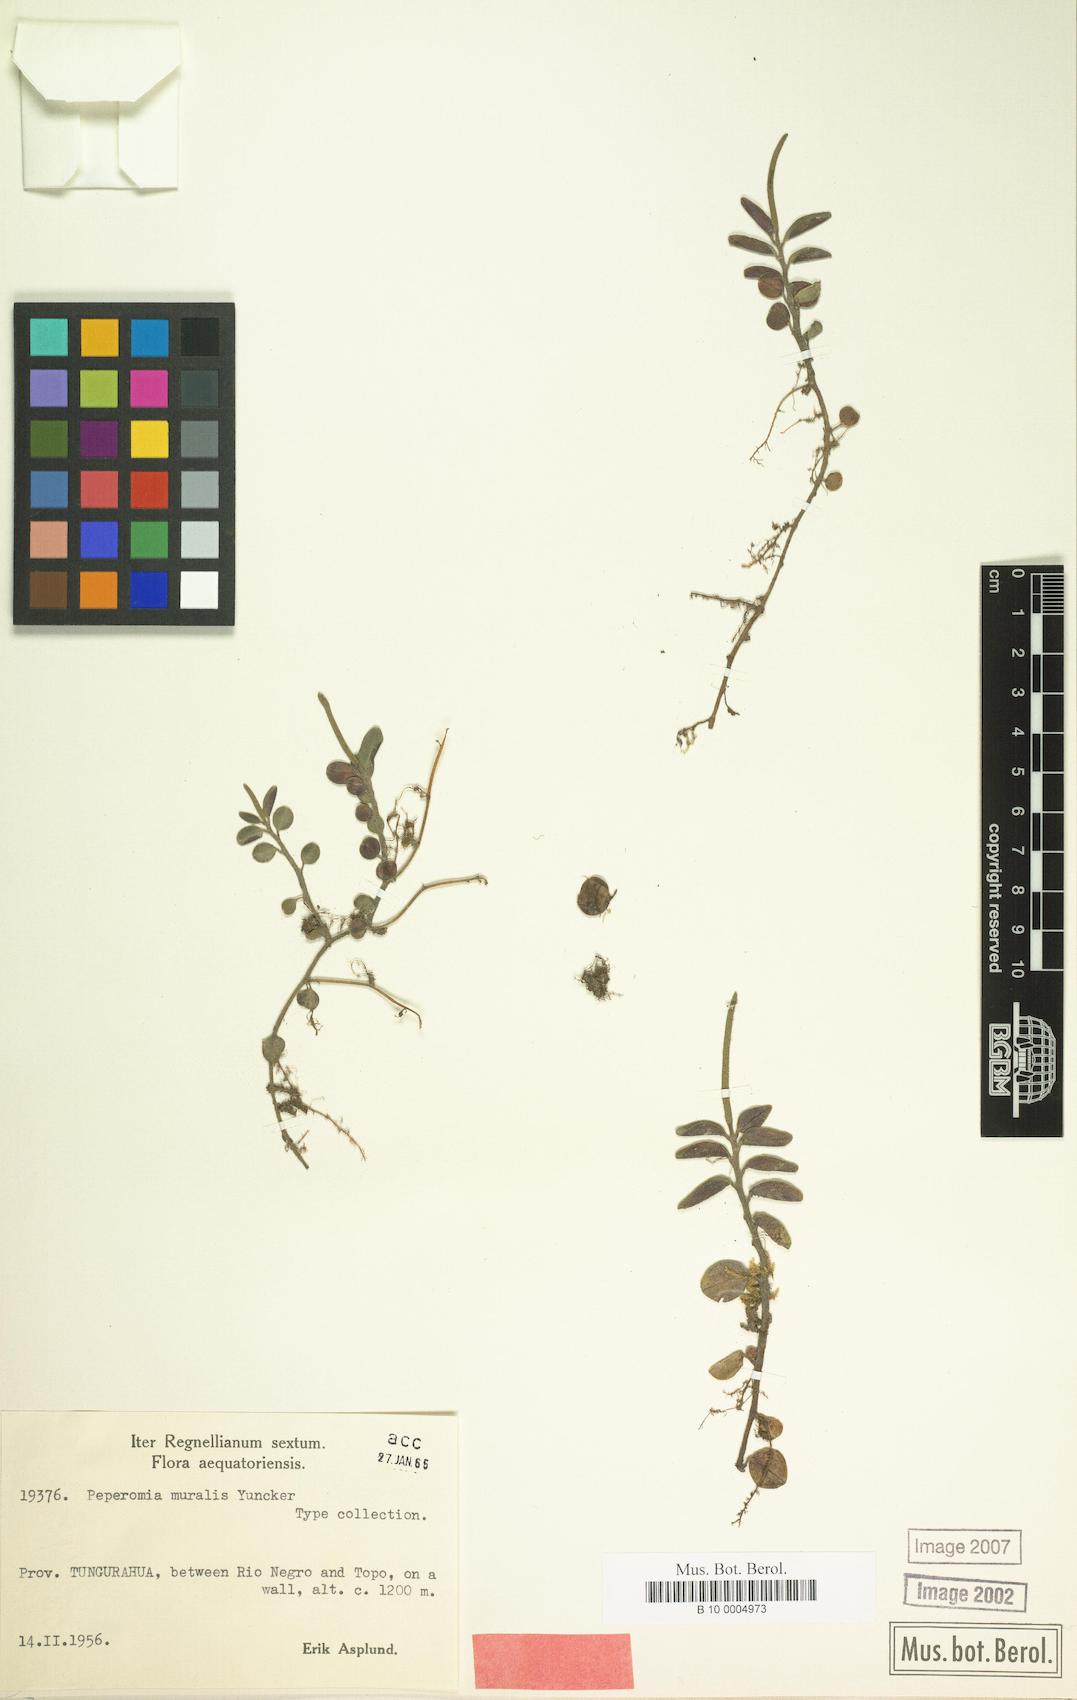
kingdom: Plantae
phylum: Tracheophyta
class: Magnoliopsida
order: Piperales
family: Piperaceae
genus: Peperomia
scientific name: Peperomia heterophylla
